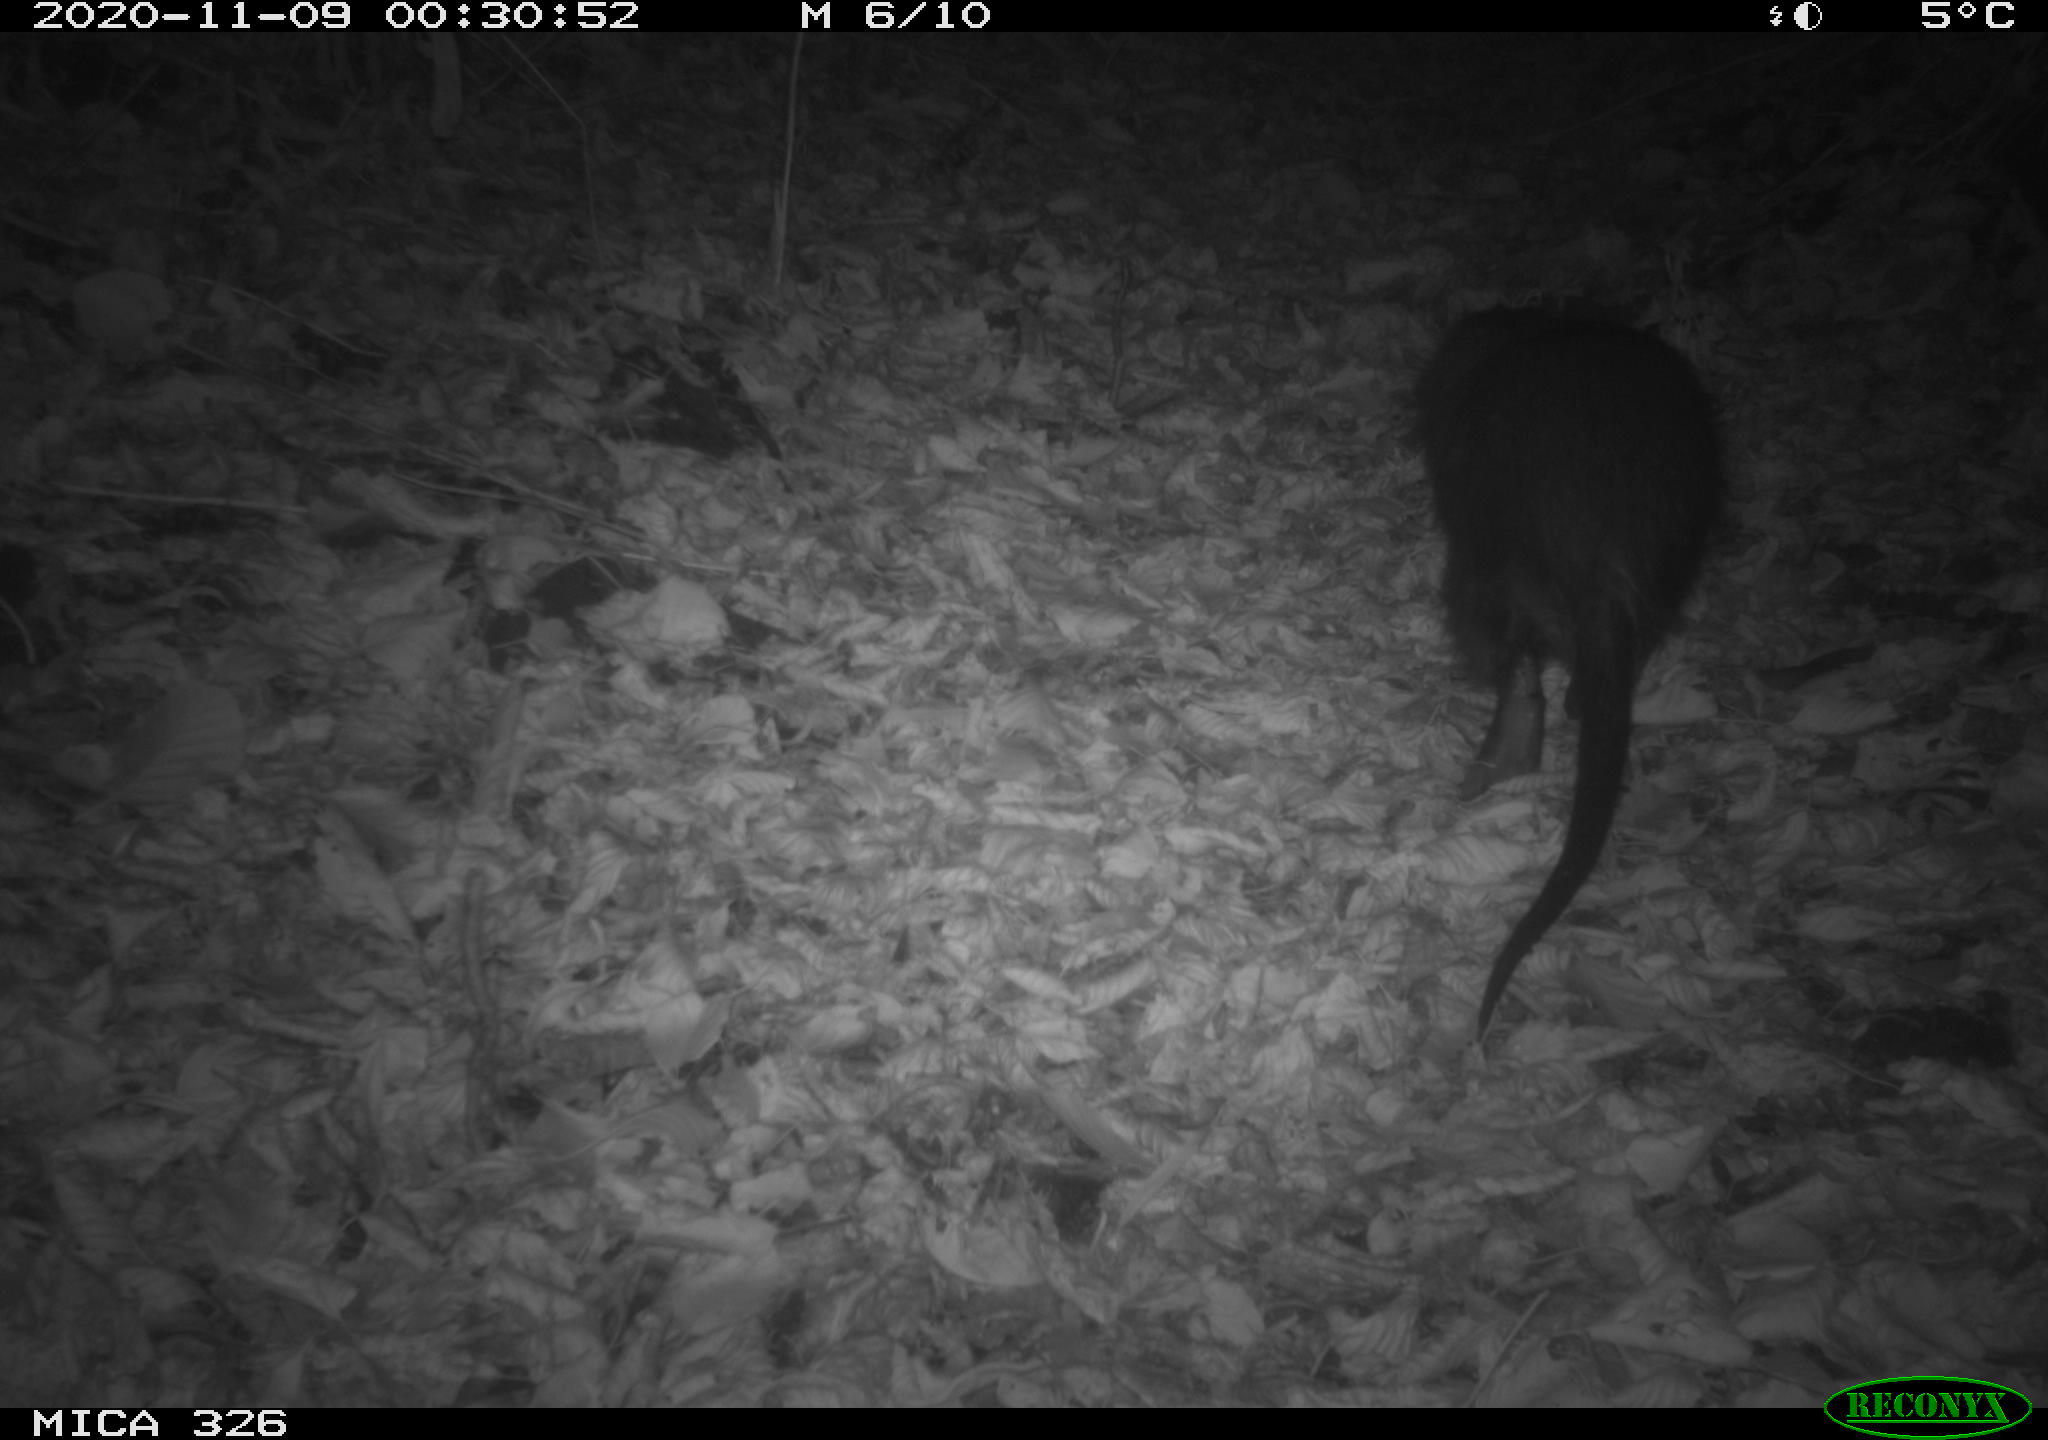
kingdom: Animalia
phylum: Chordata
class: Mammalia
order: Rodentia
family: Myocastoridae
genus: Myocastor
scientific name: Myocastor coypus
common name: Coypu
